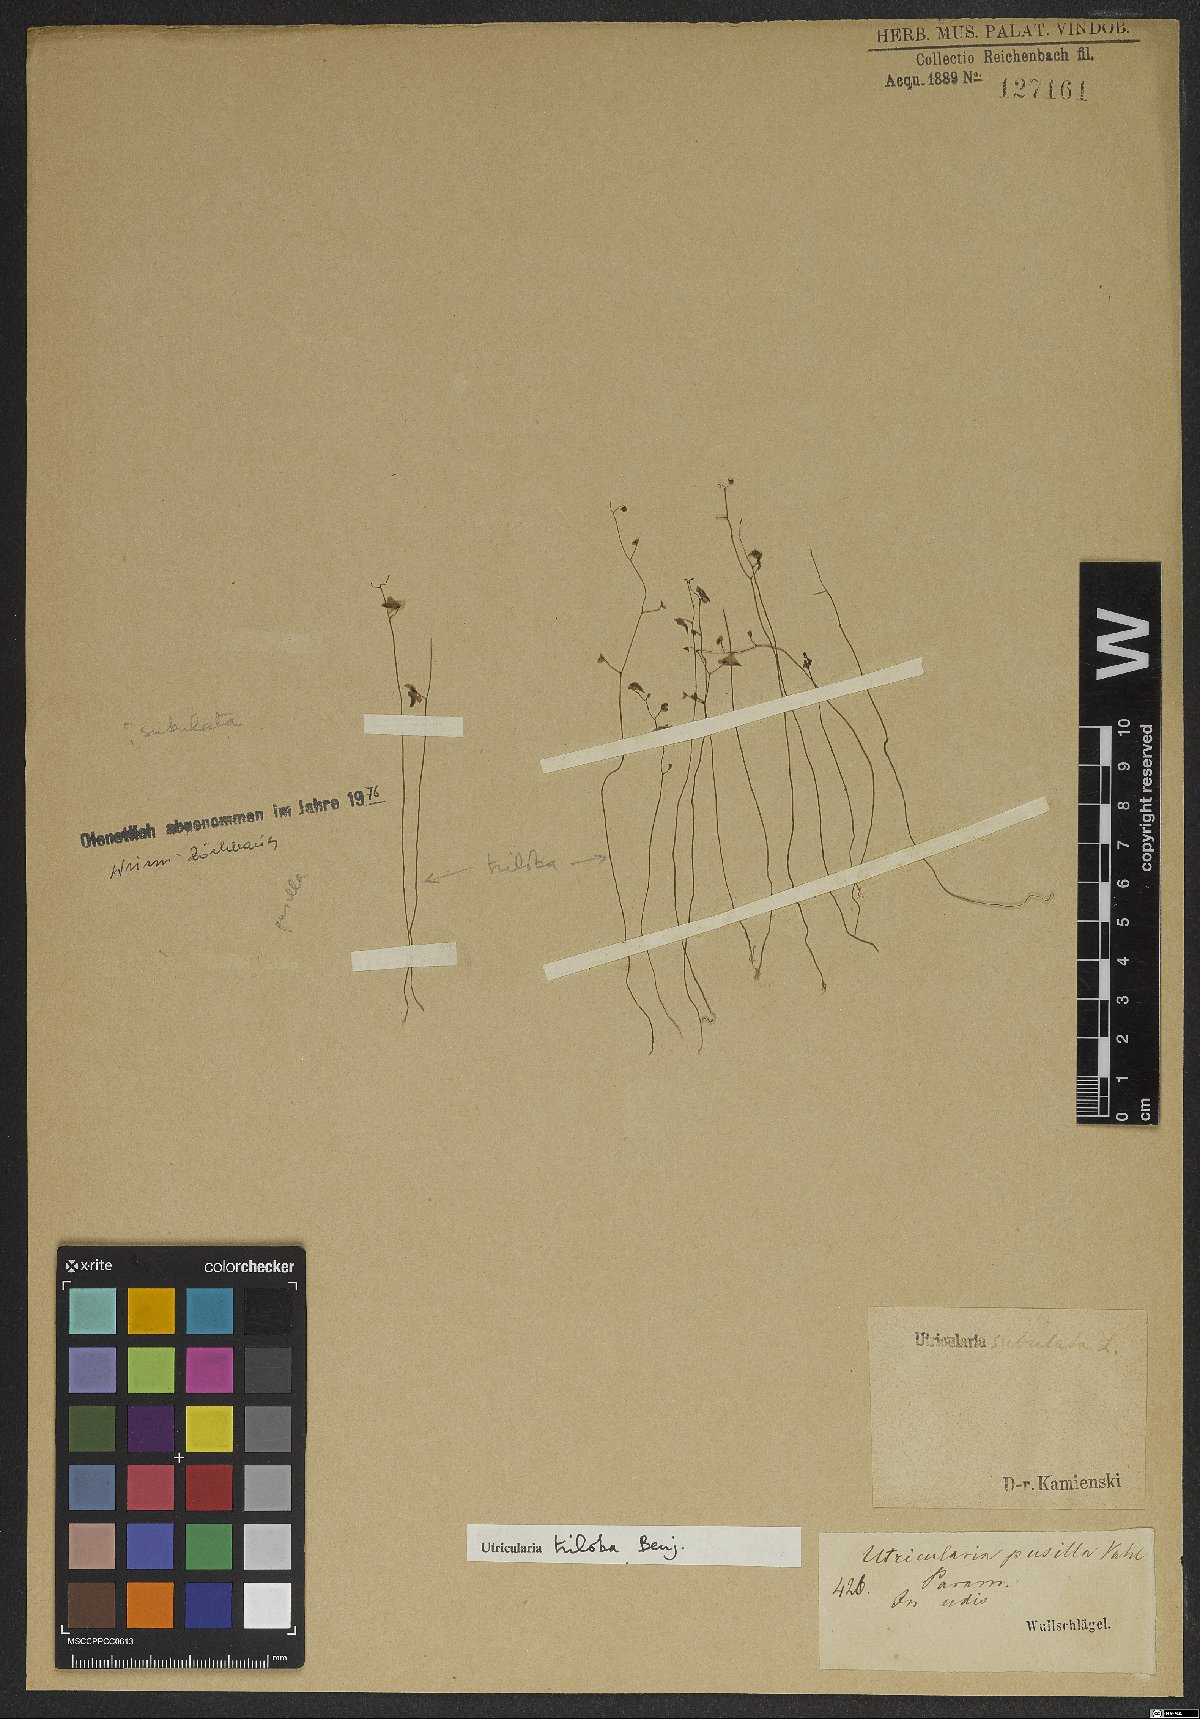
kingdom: Plantae
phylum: Tracheophyta
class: Magnoliopsida
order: Lamiales
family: Lentibulariaceae
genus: Utricularia
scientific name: Utricularia subulata
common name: Tiny bladderwort
